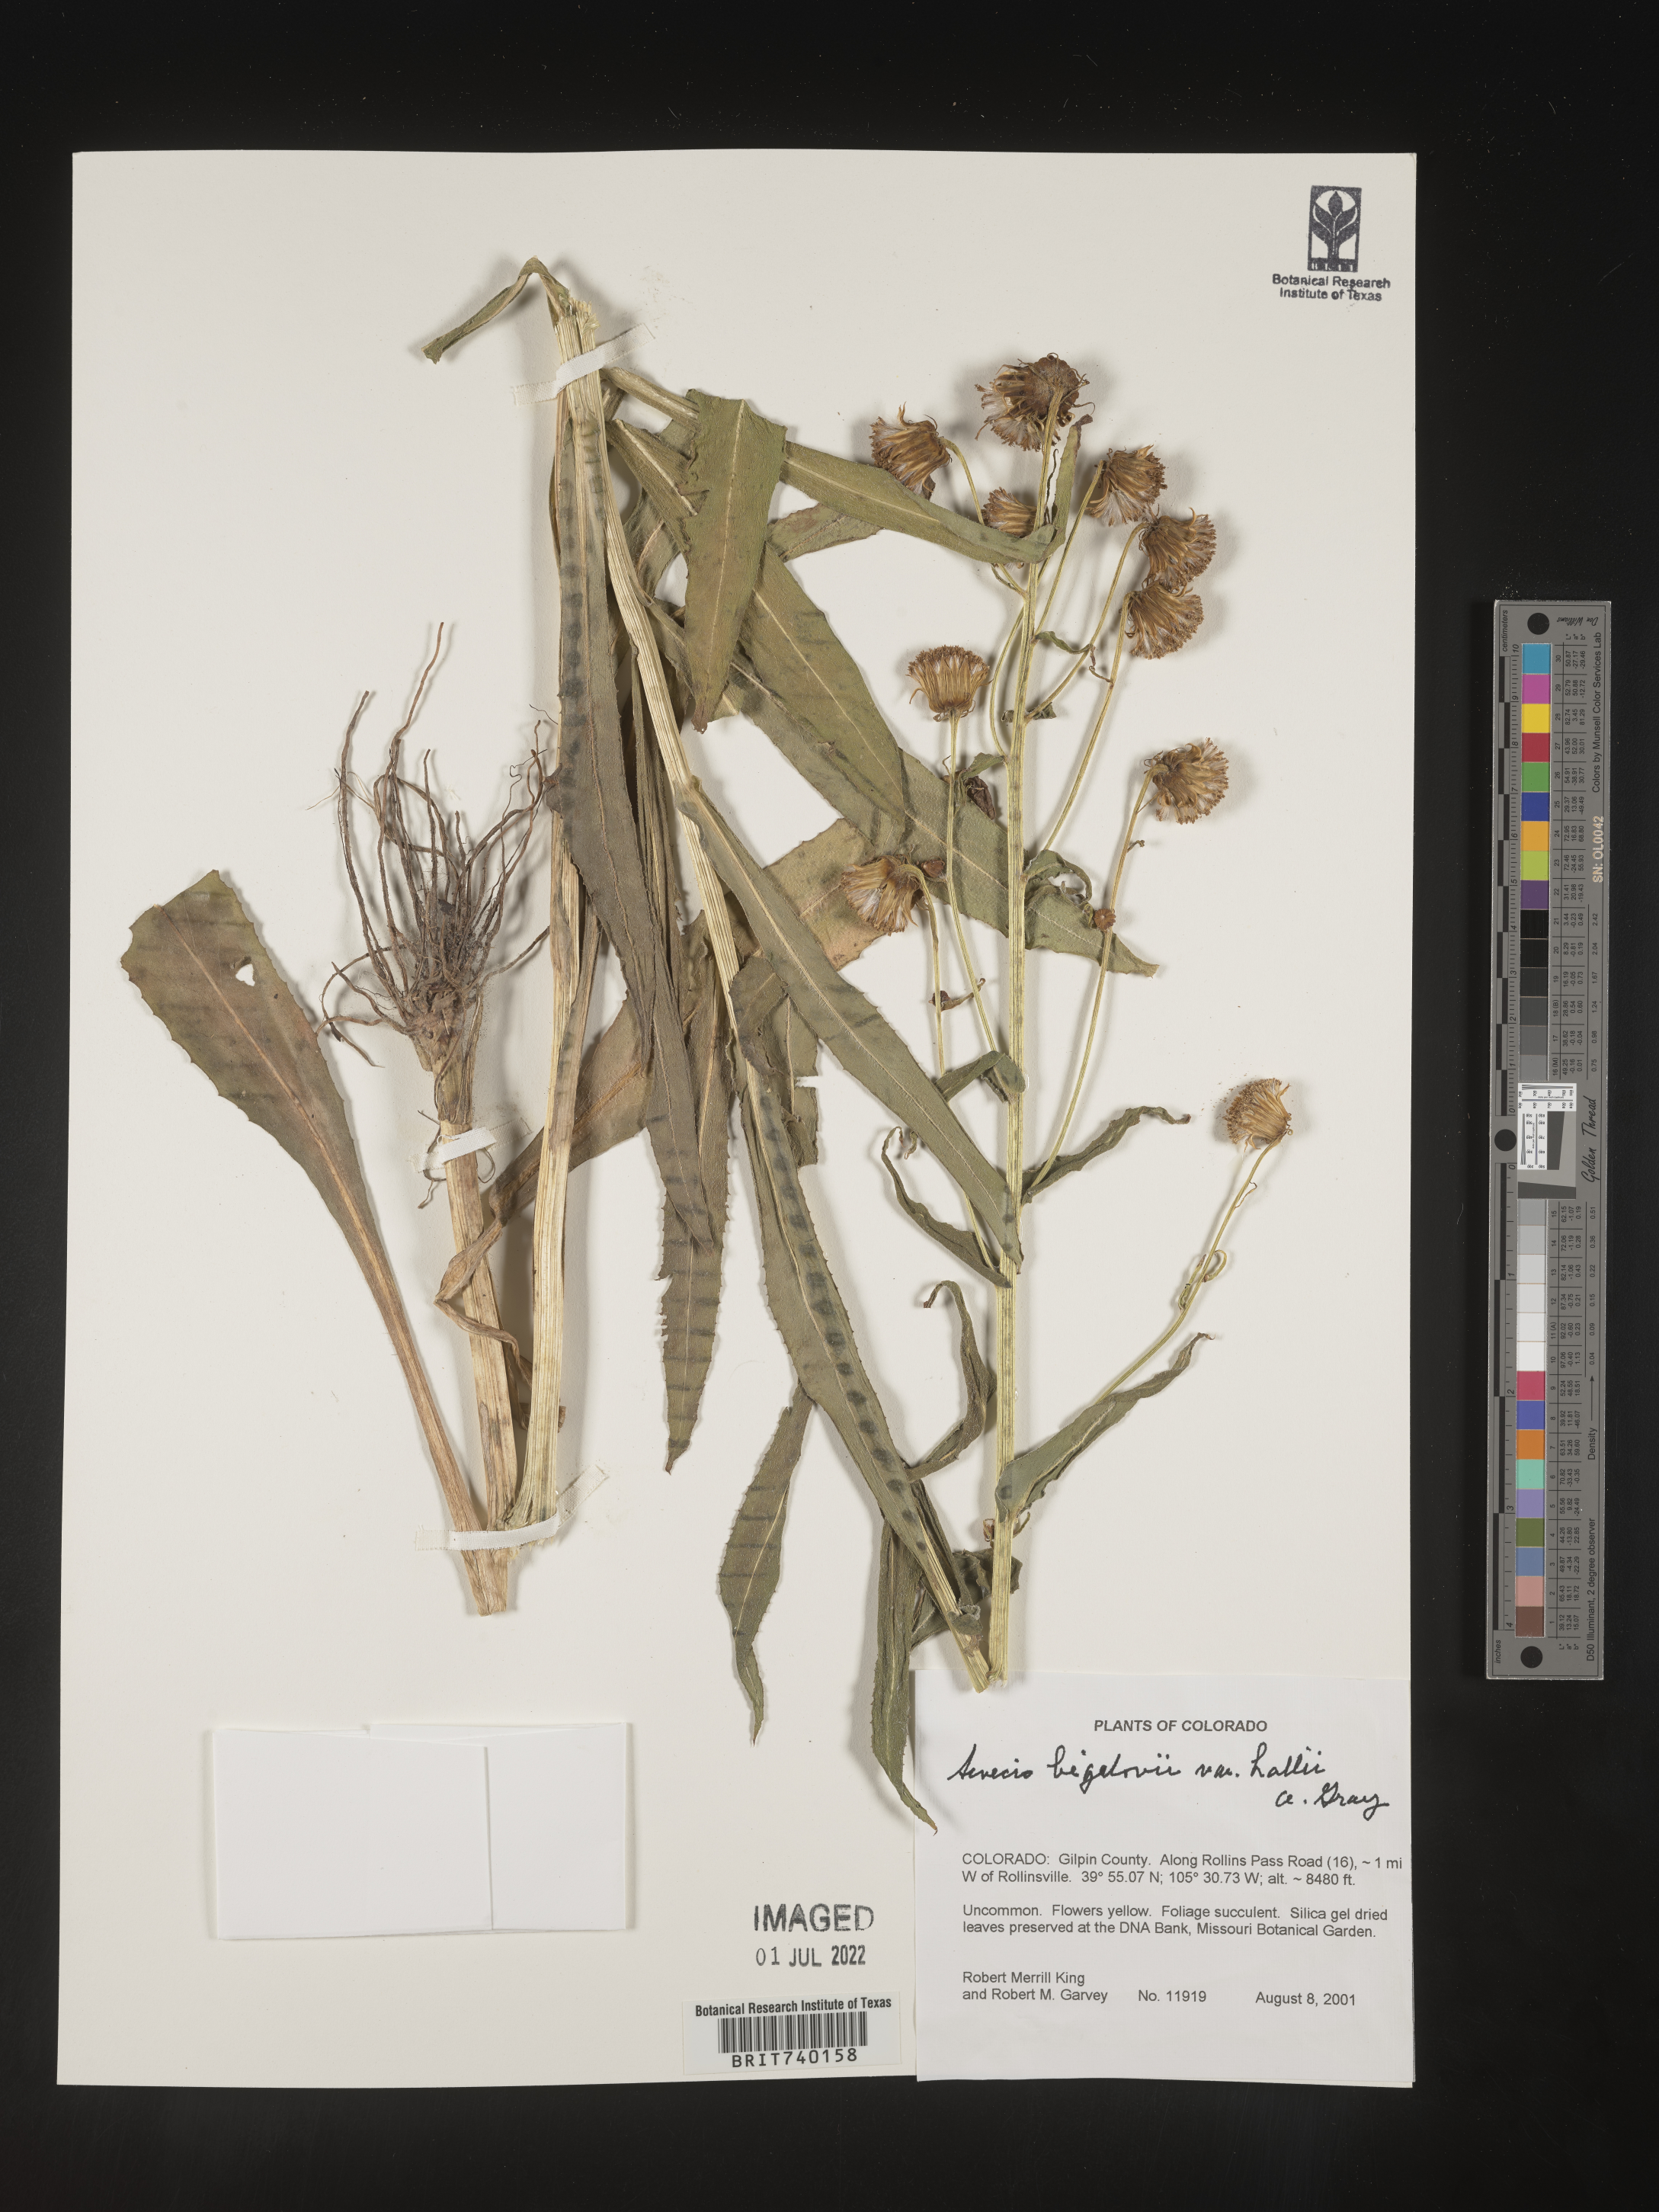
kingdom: Plantae
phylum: Tracheophyta
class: Magnoliopsida
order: Asterales
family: Asteraceae
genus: Senecio
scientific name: Senecio bigelovii
